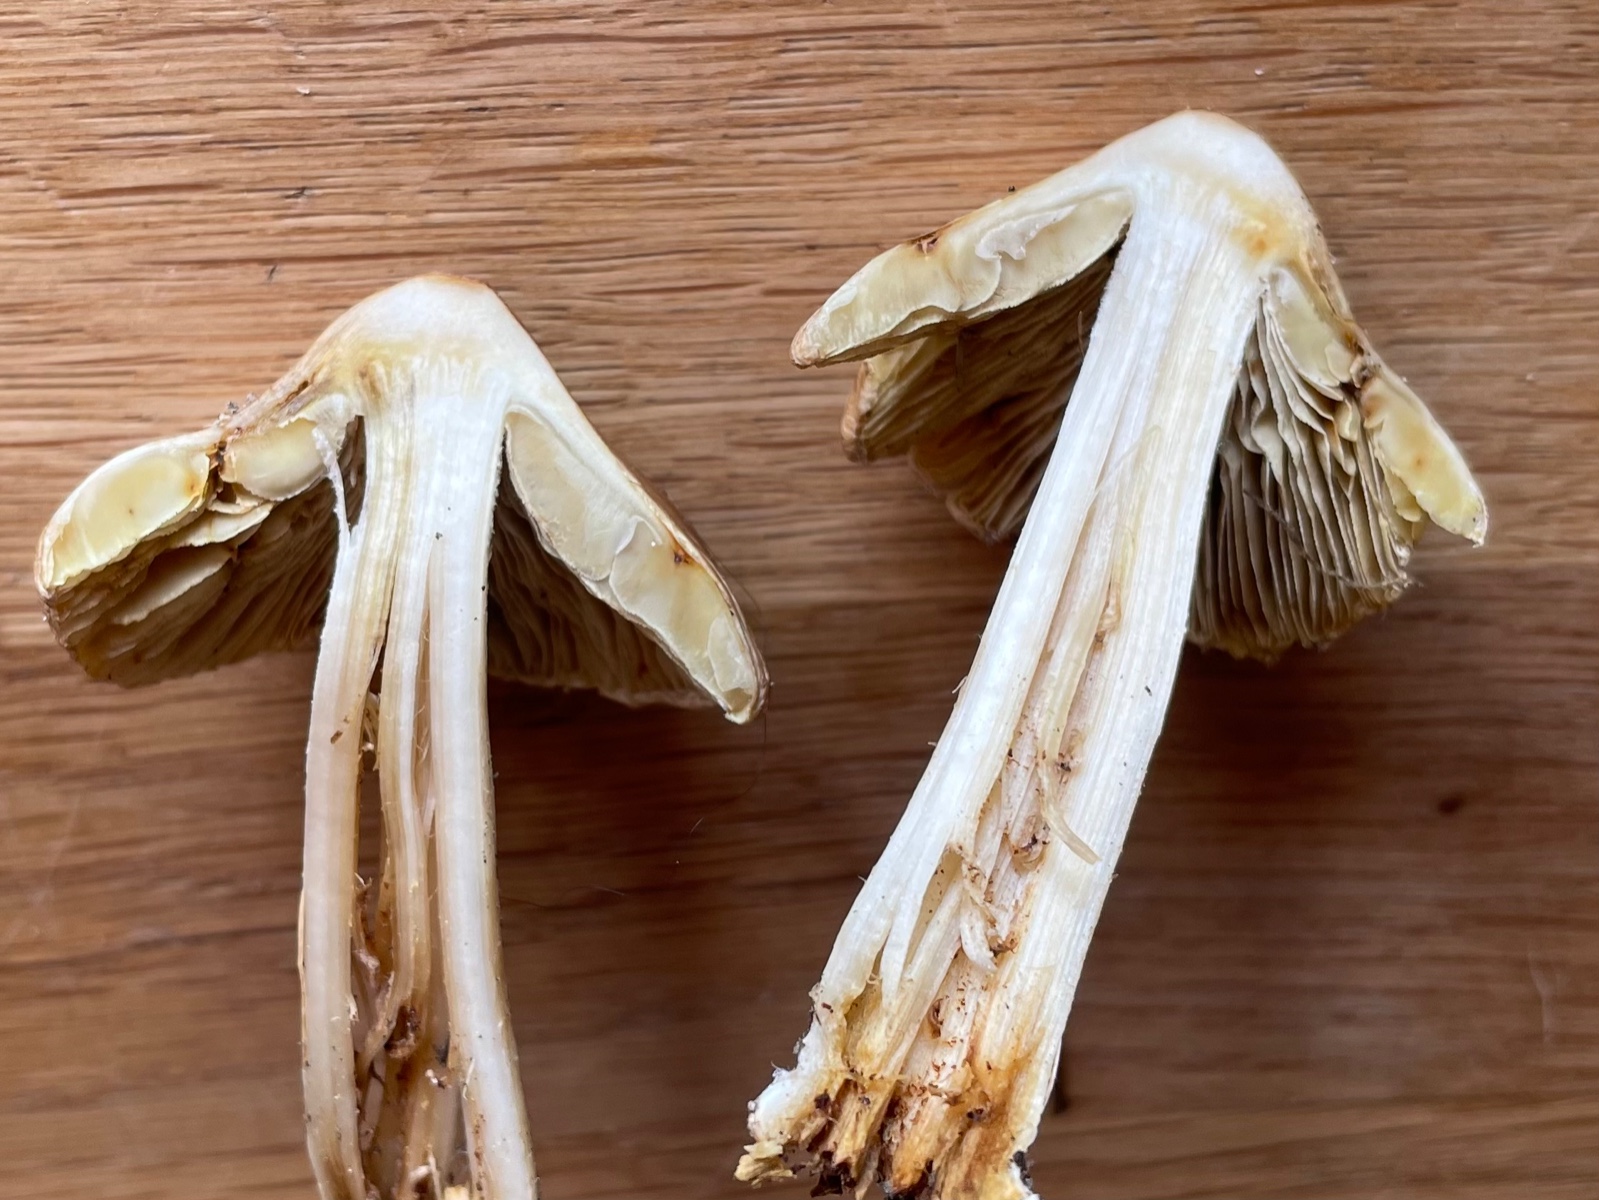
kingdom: Fungi
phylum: Basidiomycota
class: Agaricomycetes
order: Agaricales
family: Inocybaceae
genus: Pseudosperma
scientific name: Pseudosperma
